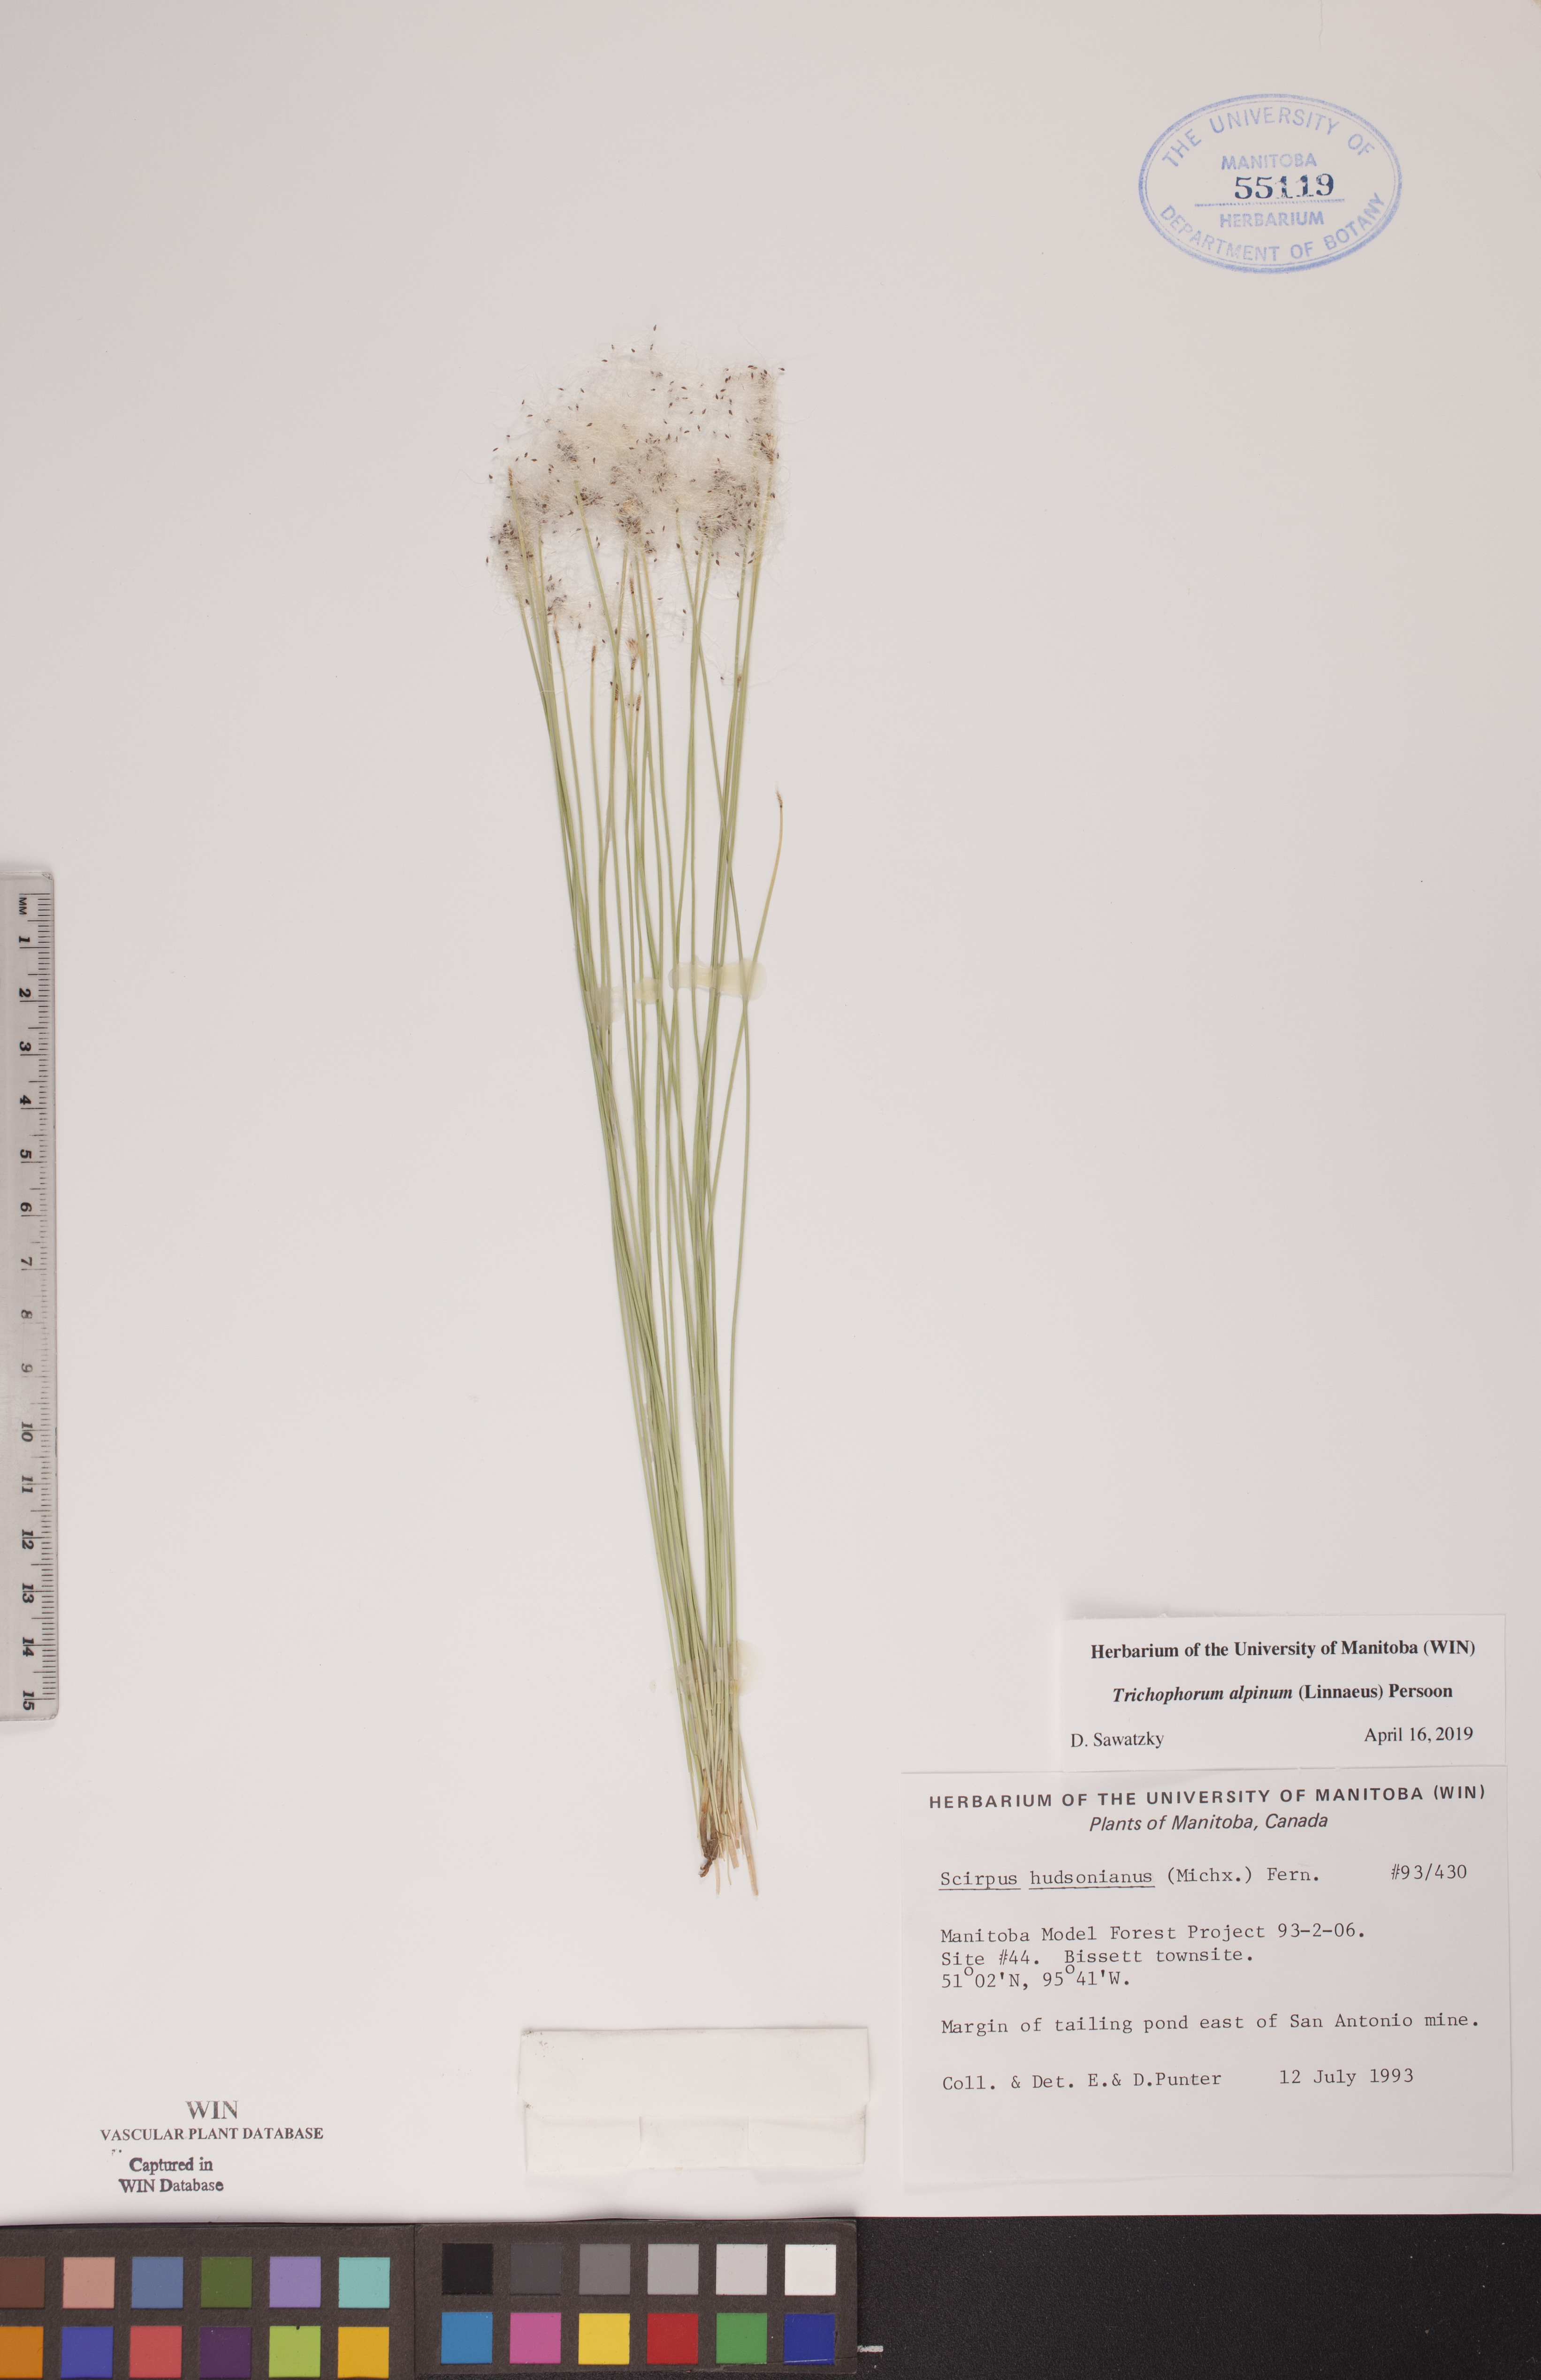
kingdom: Plantae
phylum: Tracheophyta
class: Liliopsida
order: Poales
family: Cyperaceae
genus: Trichophorum
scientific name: Trichophorum alpinum
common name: Alpine bulrush
